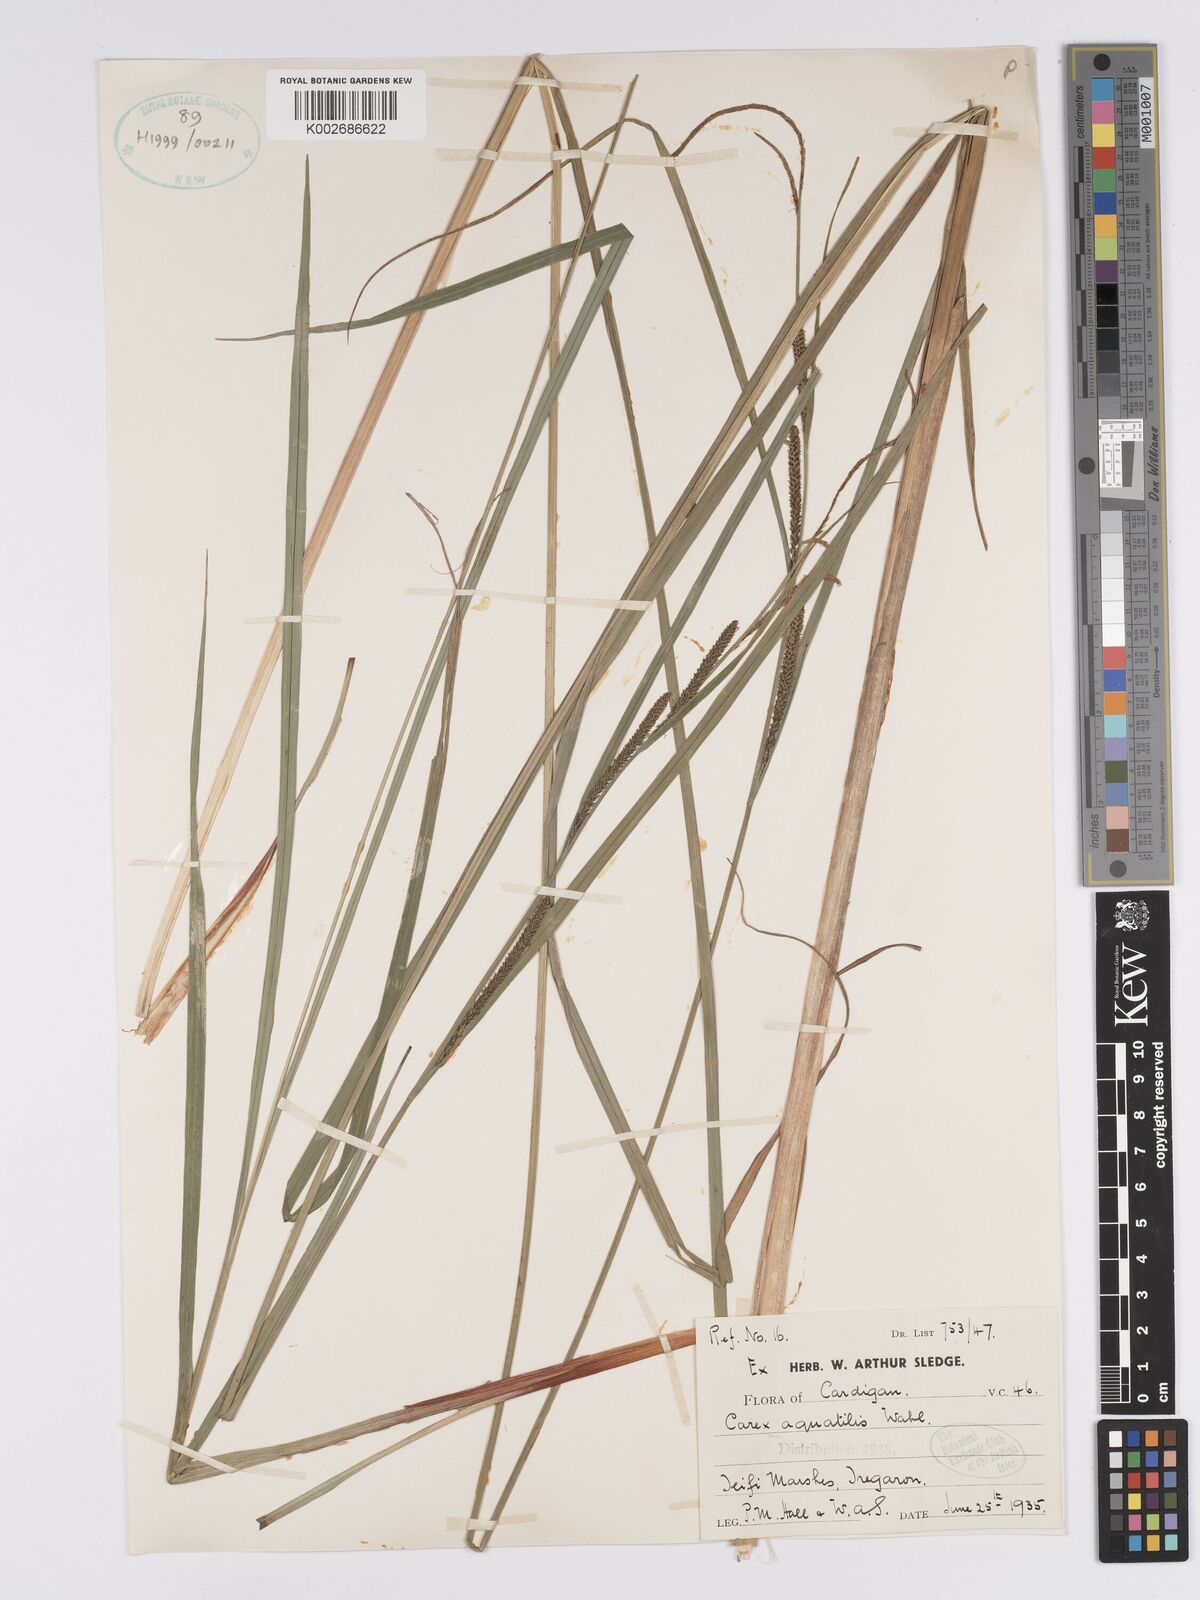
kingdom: Plantae
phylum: Tracheophyta
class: Liliopsida
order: Poales
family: Cyperaceae
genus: Carex
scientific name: Carex aquatilis
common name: Water sedge
